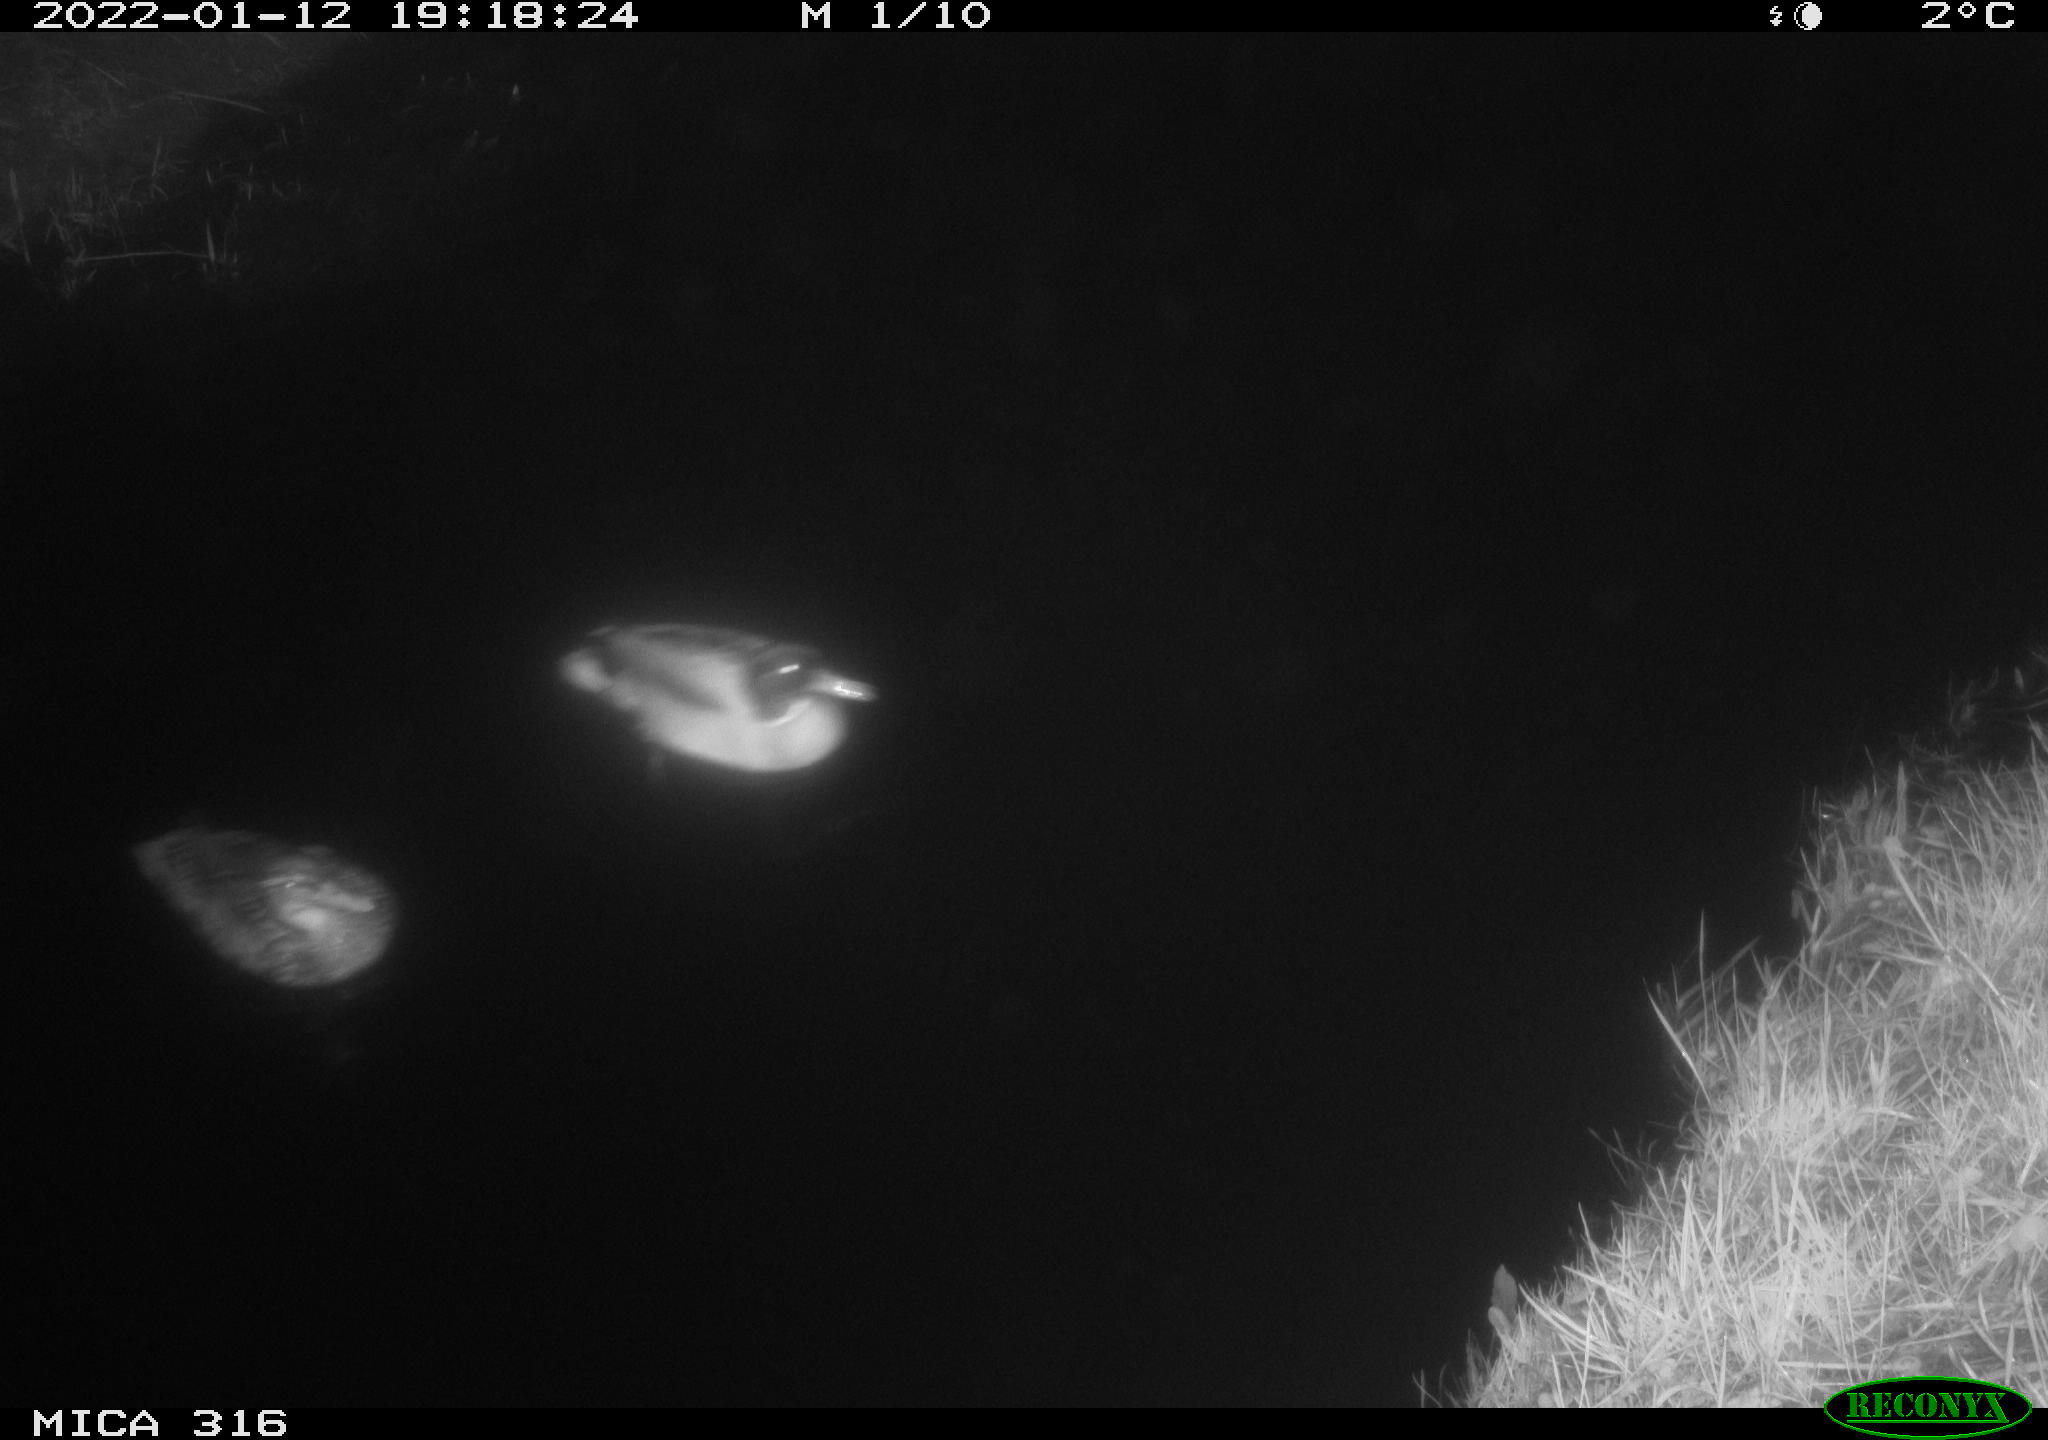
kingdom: Animalia
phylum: Chordata
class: Aves
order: Anseriformes
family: Anatidae
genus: Anas
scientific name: Anas
